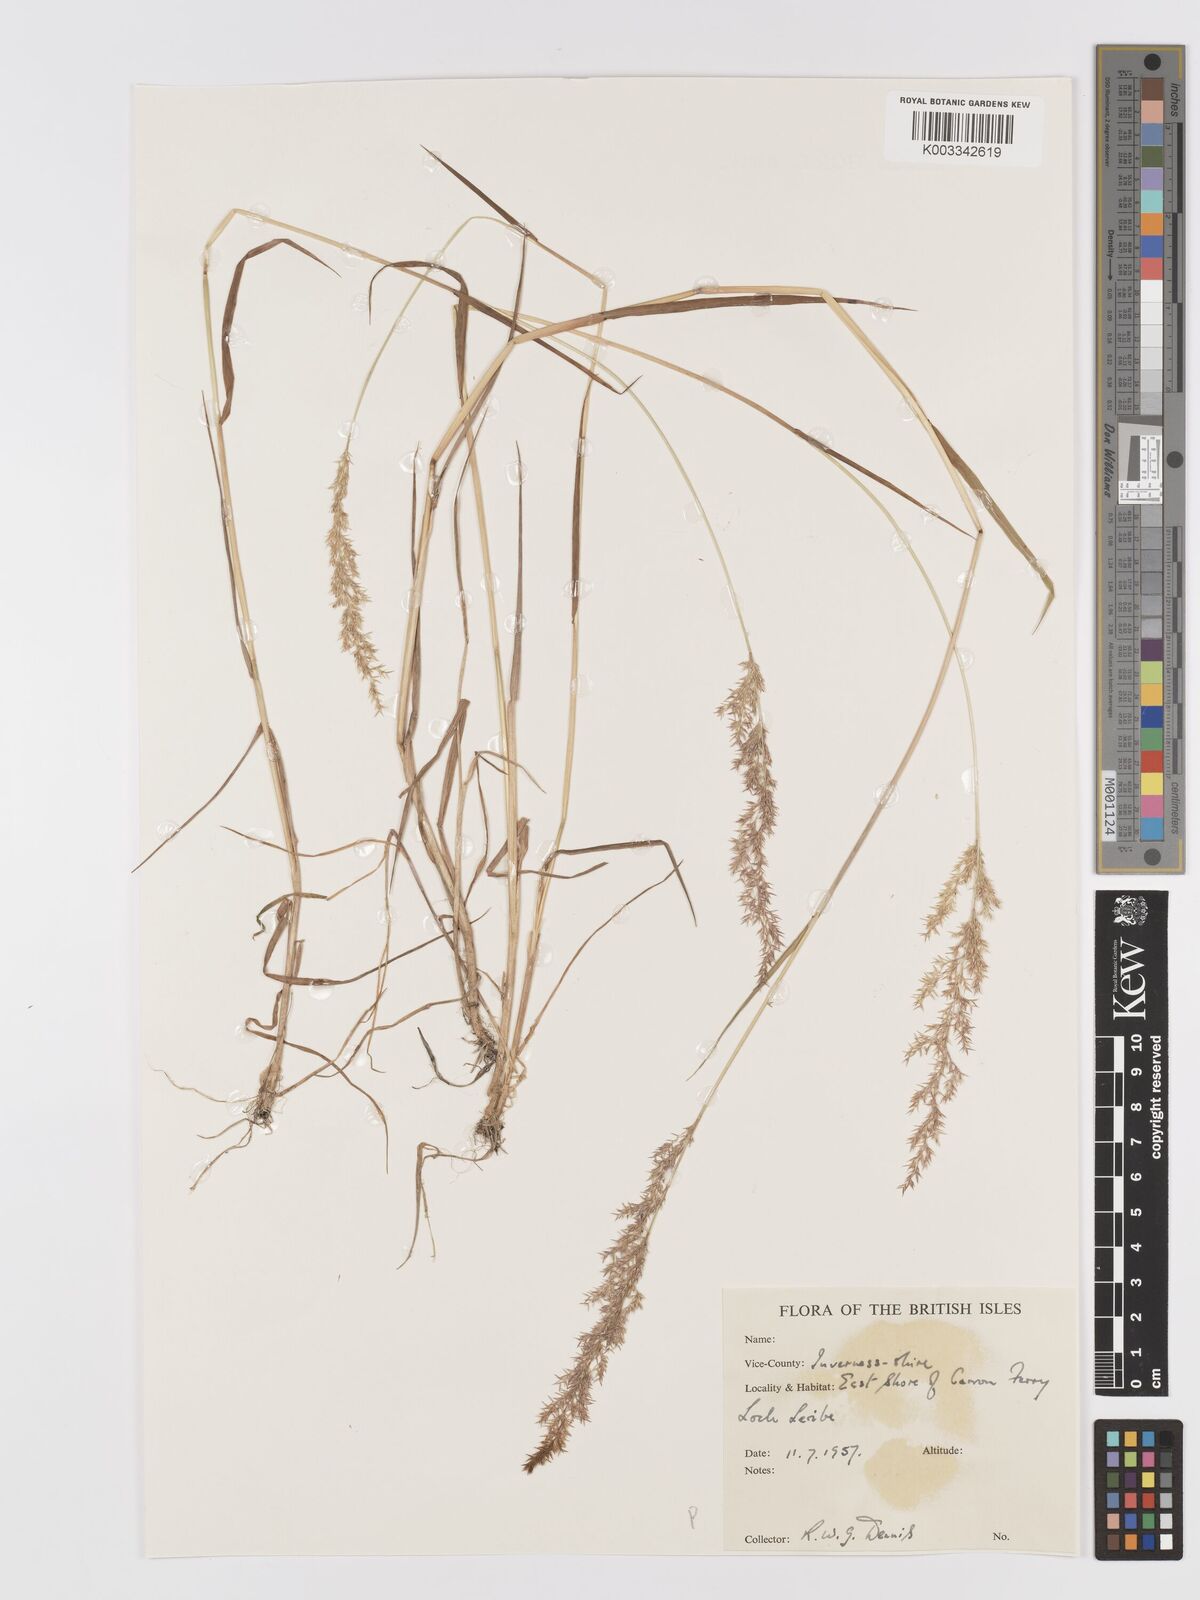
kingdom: Plantae
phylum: Tracheophyta
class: Liliopsida
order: Poales
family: Poaceae
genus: Agrostis
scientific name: Agrostis
